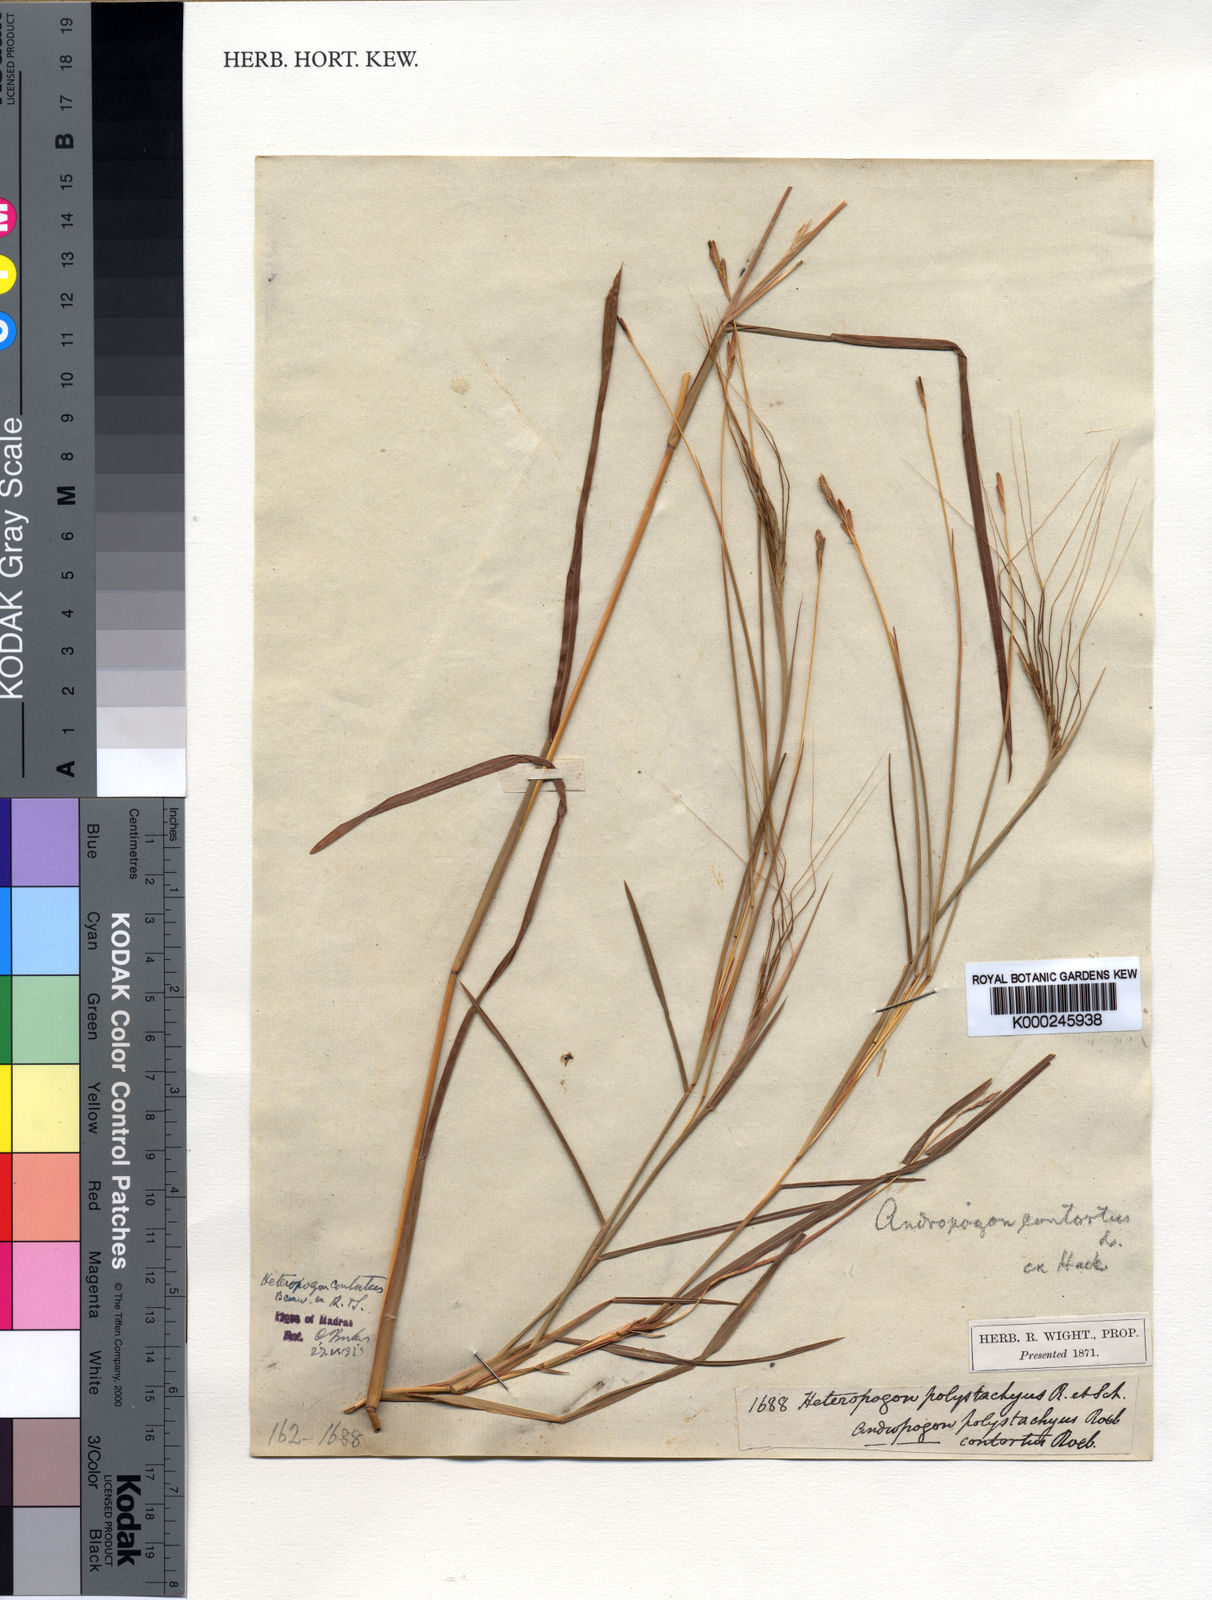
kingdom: Plantae
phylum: Tracheophyta
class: Liliopsida
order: Poales
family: Poaceae
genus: Heteropogon
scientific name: Heteropogon contortus
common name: Tanglehead
